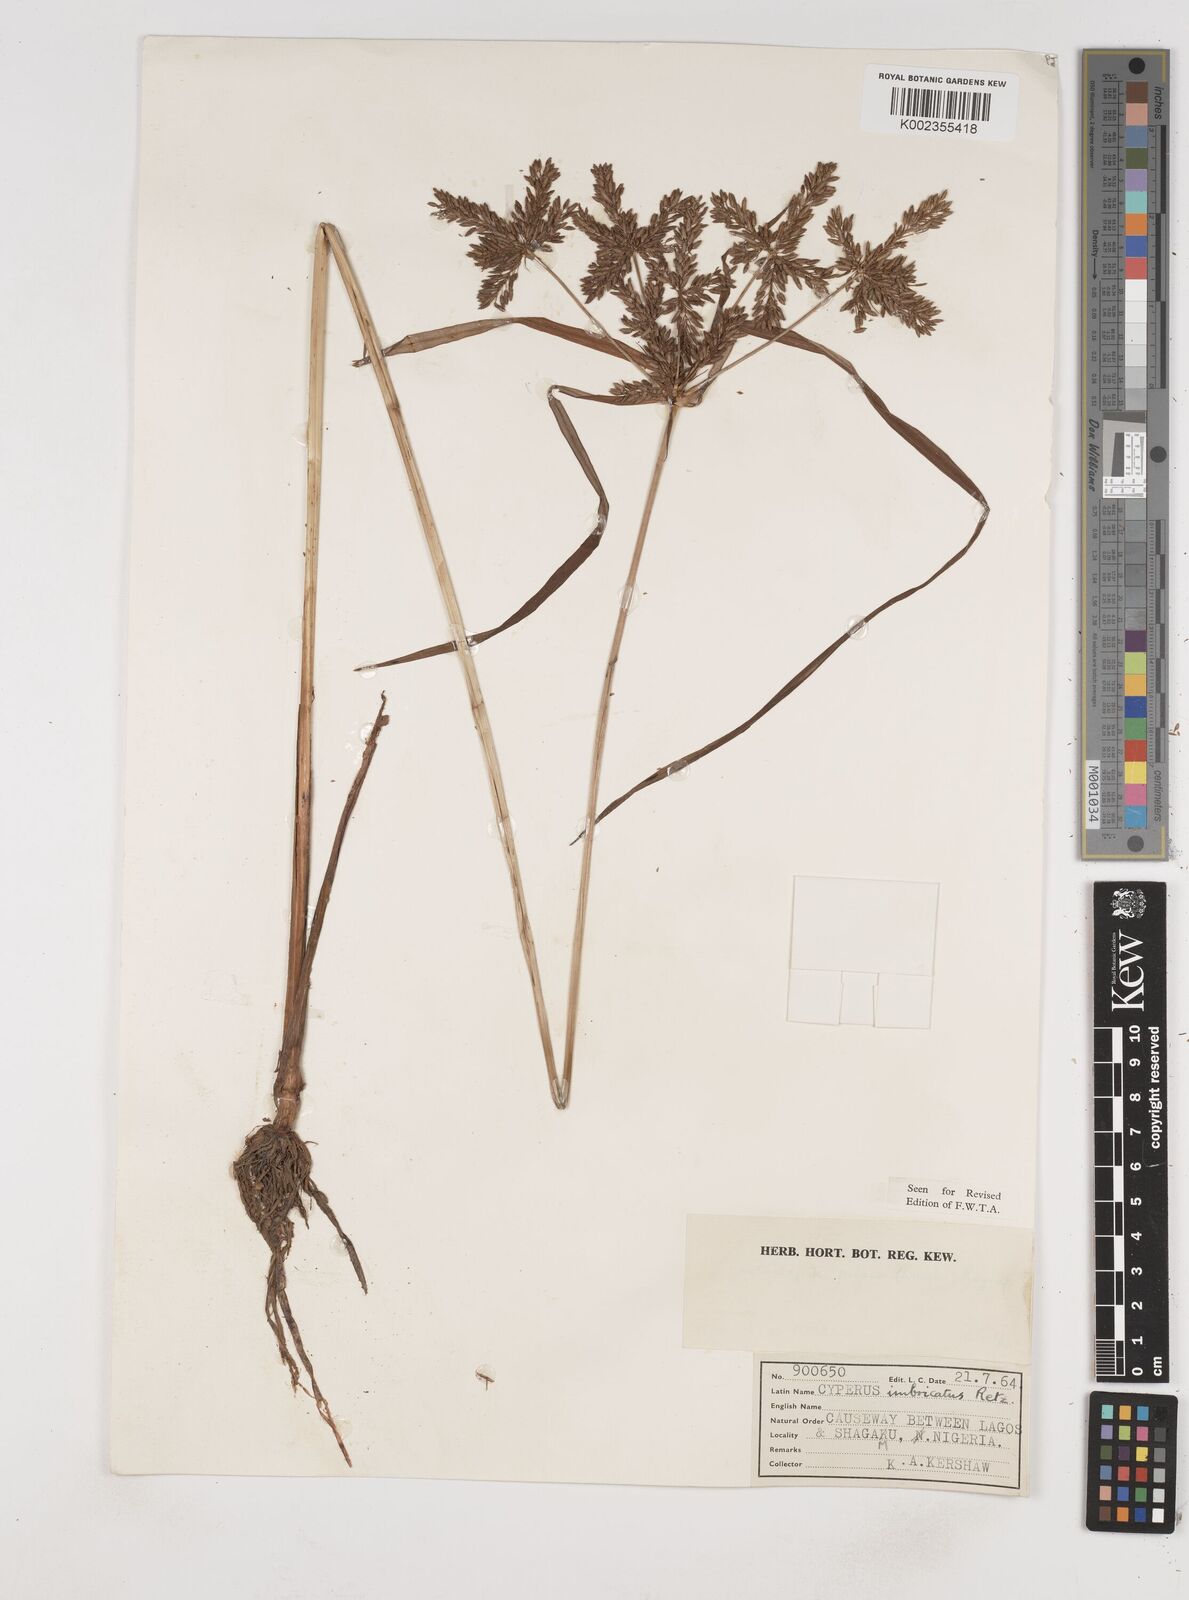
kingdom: Plantae
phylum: Tracheophyta
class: Liliopsida
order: Poales
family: Cyperaceae
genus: Cyperus
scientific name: Cyperus imbricatus
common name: Shingle flatsedge
